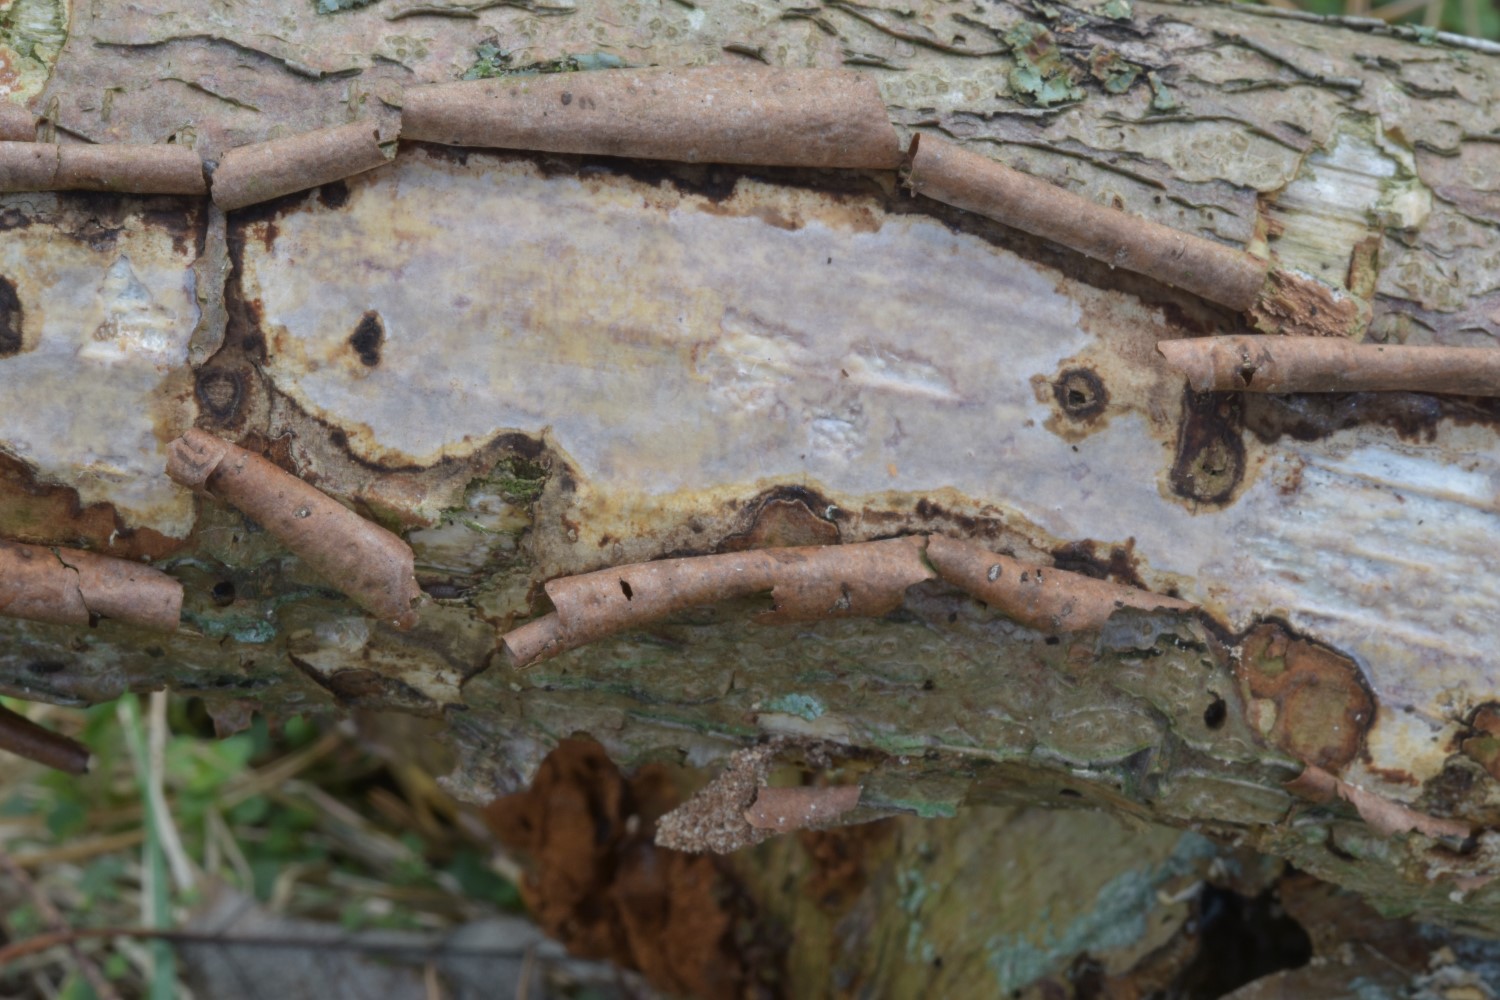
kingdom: Fungi
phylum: Basidiomycota
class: Agaricomycetes
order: Corticiales
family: Vuilleminiaceae
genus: Vuilleminia
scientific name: Vuilleminia coryli
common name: hassel-barksprænger
